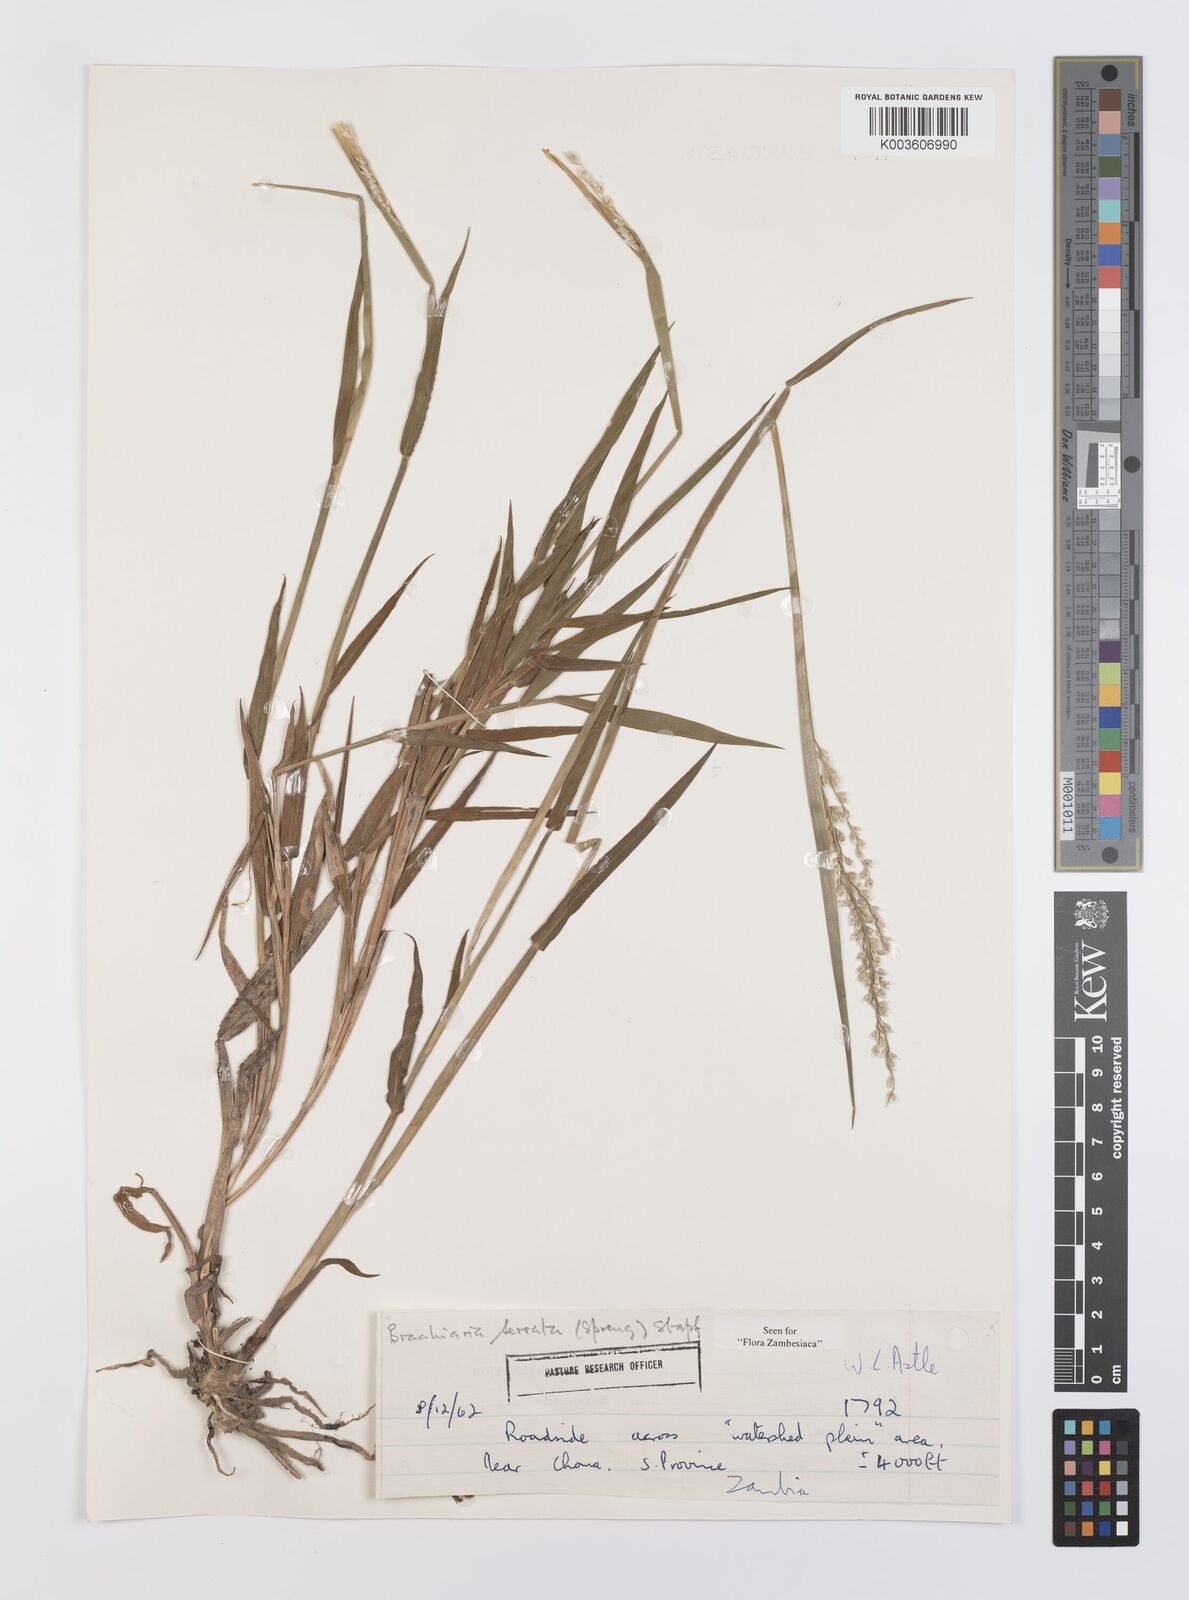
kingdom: Plantae
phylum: Tracheophyta
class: Liliopsida
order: Poales
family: Poaceae
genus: Urochloa
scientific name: Urochloa serrata
